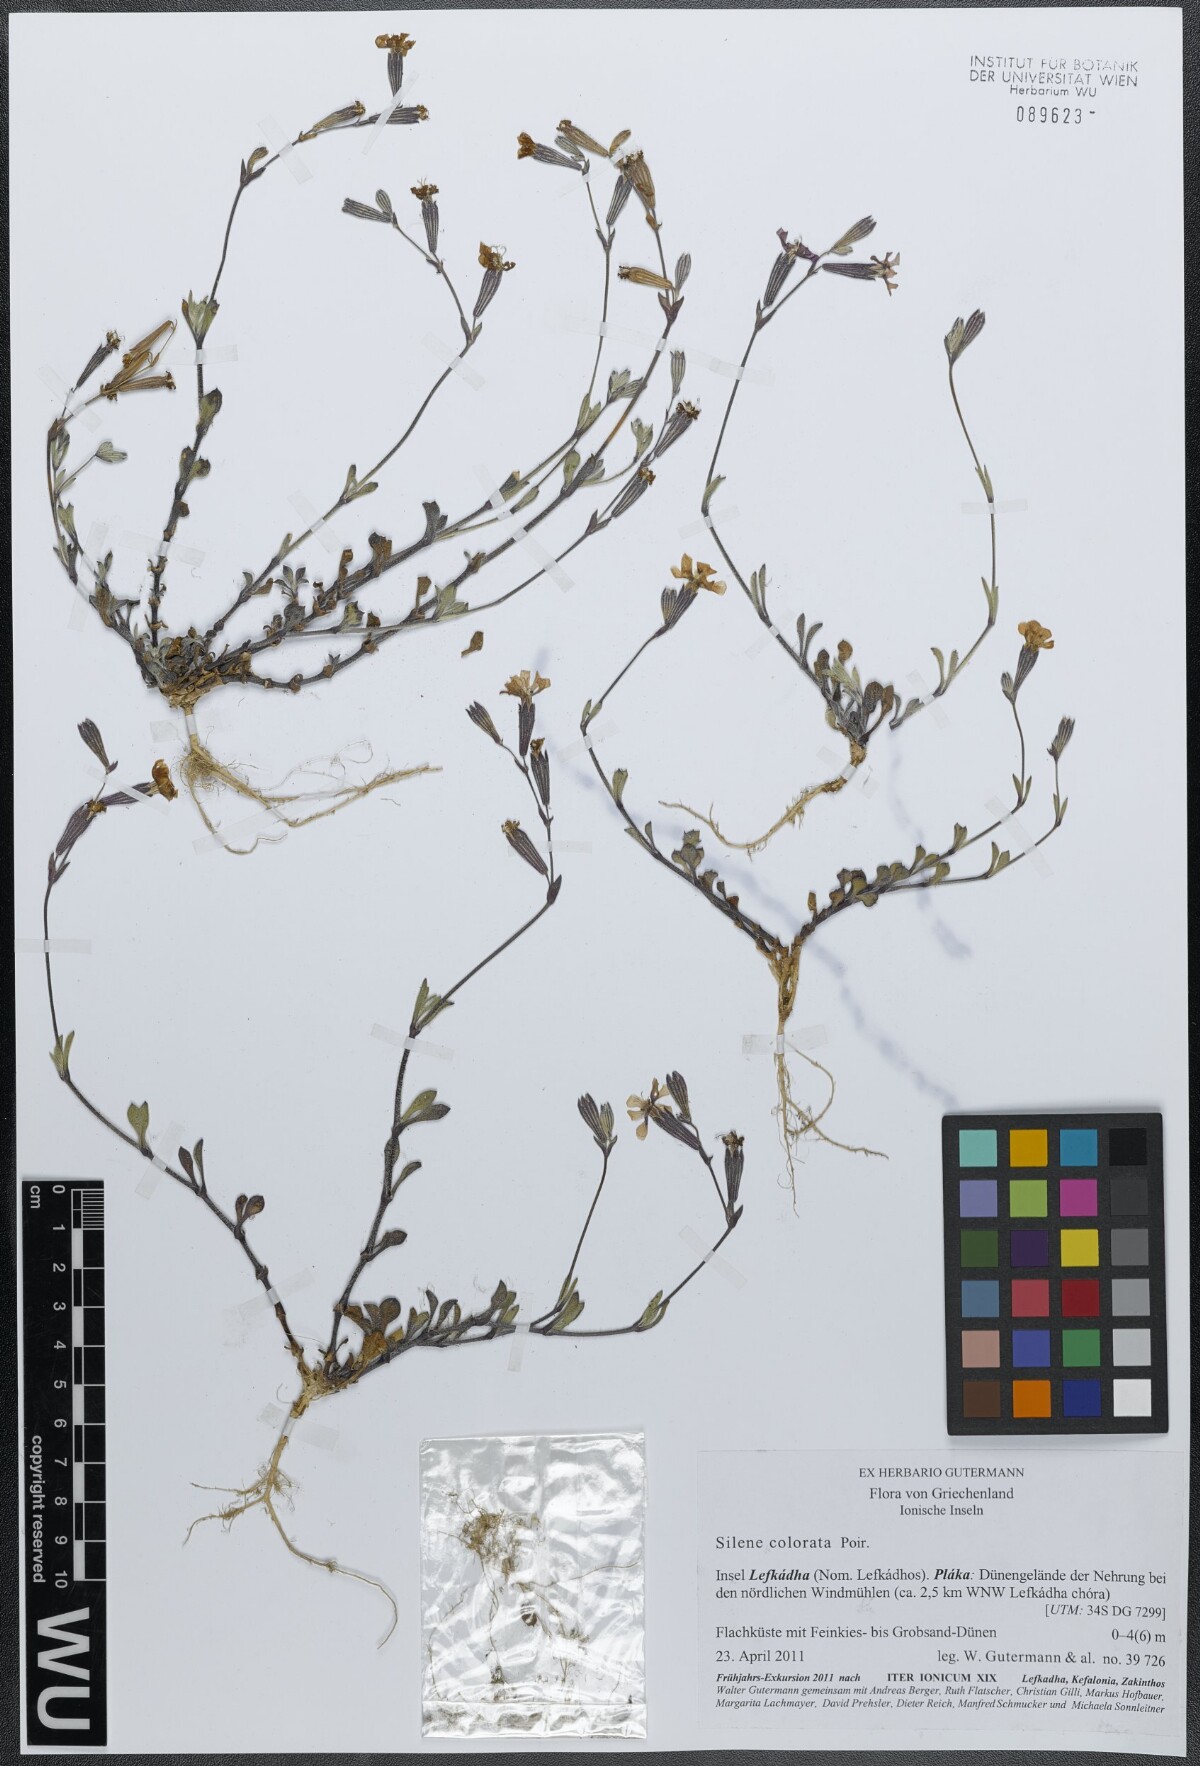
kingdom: Plantae
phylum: Tracheophyta
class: Magnoliopsida
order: Caryophyllales
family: Caryophyllaceae
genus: Silene
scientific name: Silene colorata
